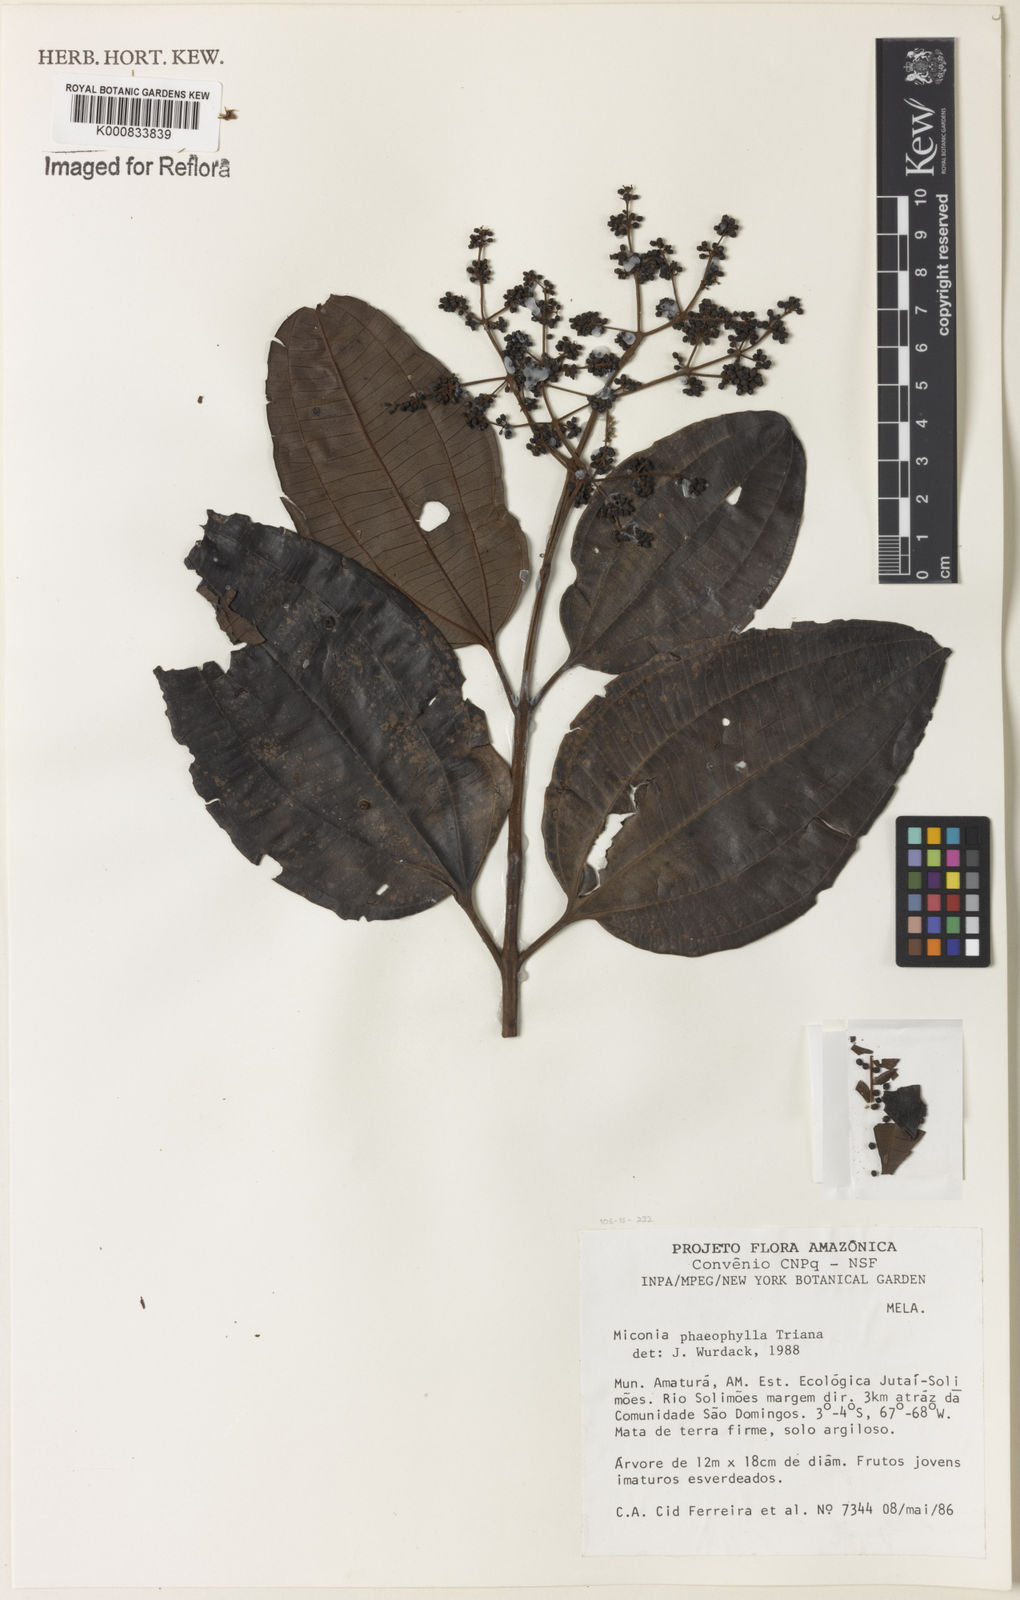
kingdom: Plantae
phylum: Tracheophyta
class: Magnoliopsida
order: Myrtales
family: Melastomataceae
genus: Miconia
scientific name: Miconia phaeophylla
